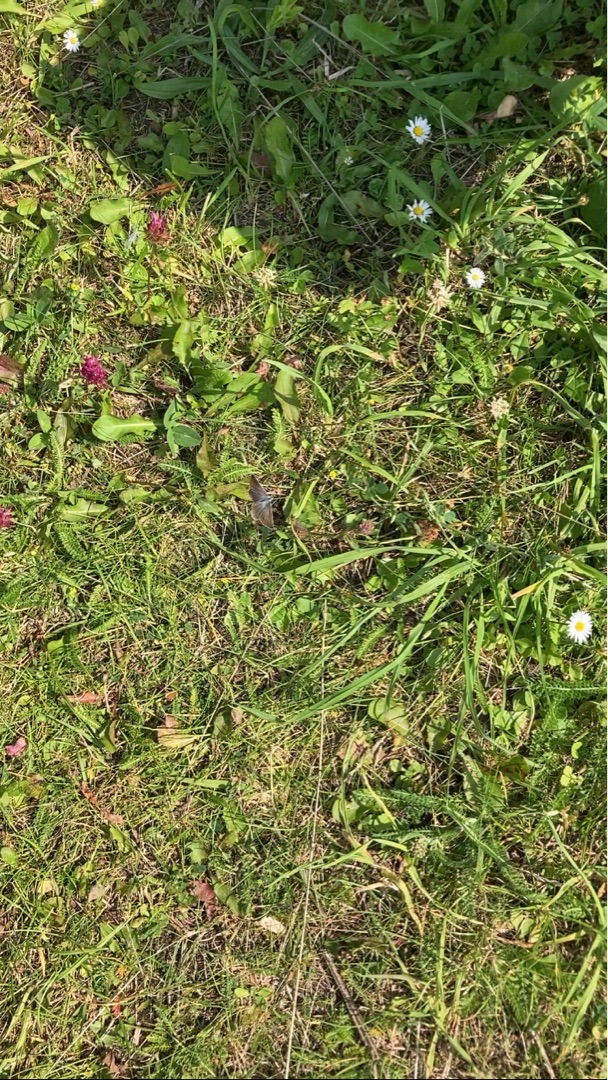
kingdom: Animalia
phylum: Arthropoda
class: Insecta
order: Lepidoptera
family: Lycaenidae
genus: Polyommatus
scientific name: Polyommatus icarus
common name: Almindelig blåfugl
